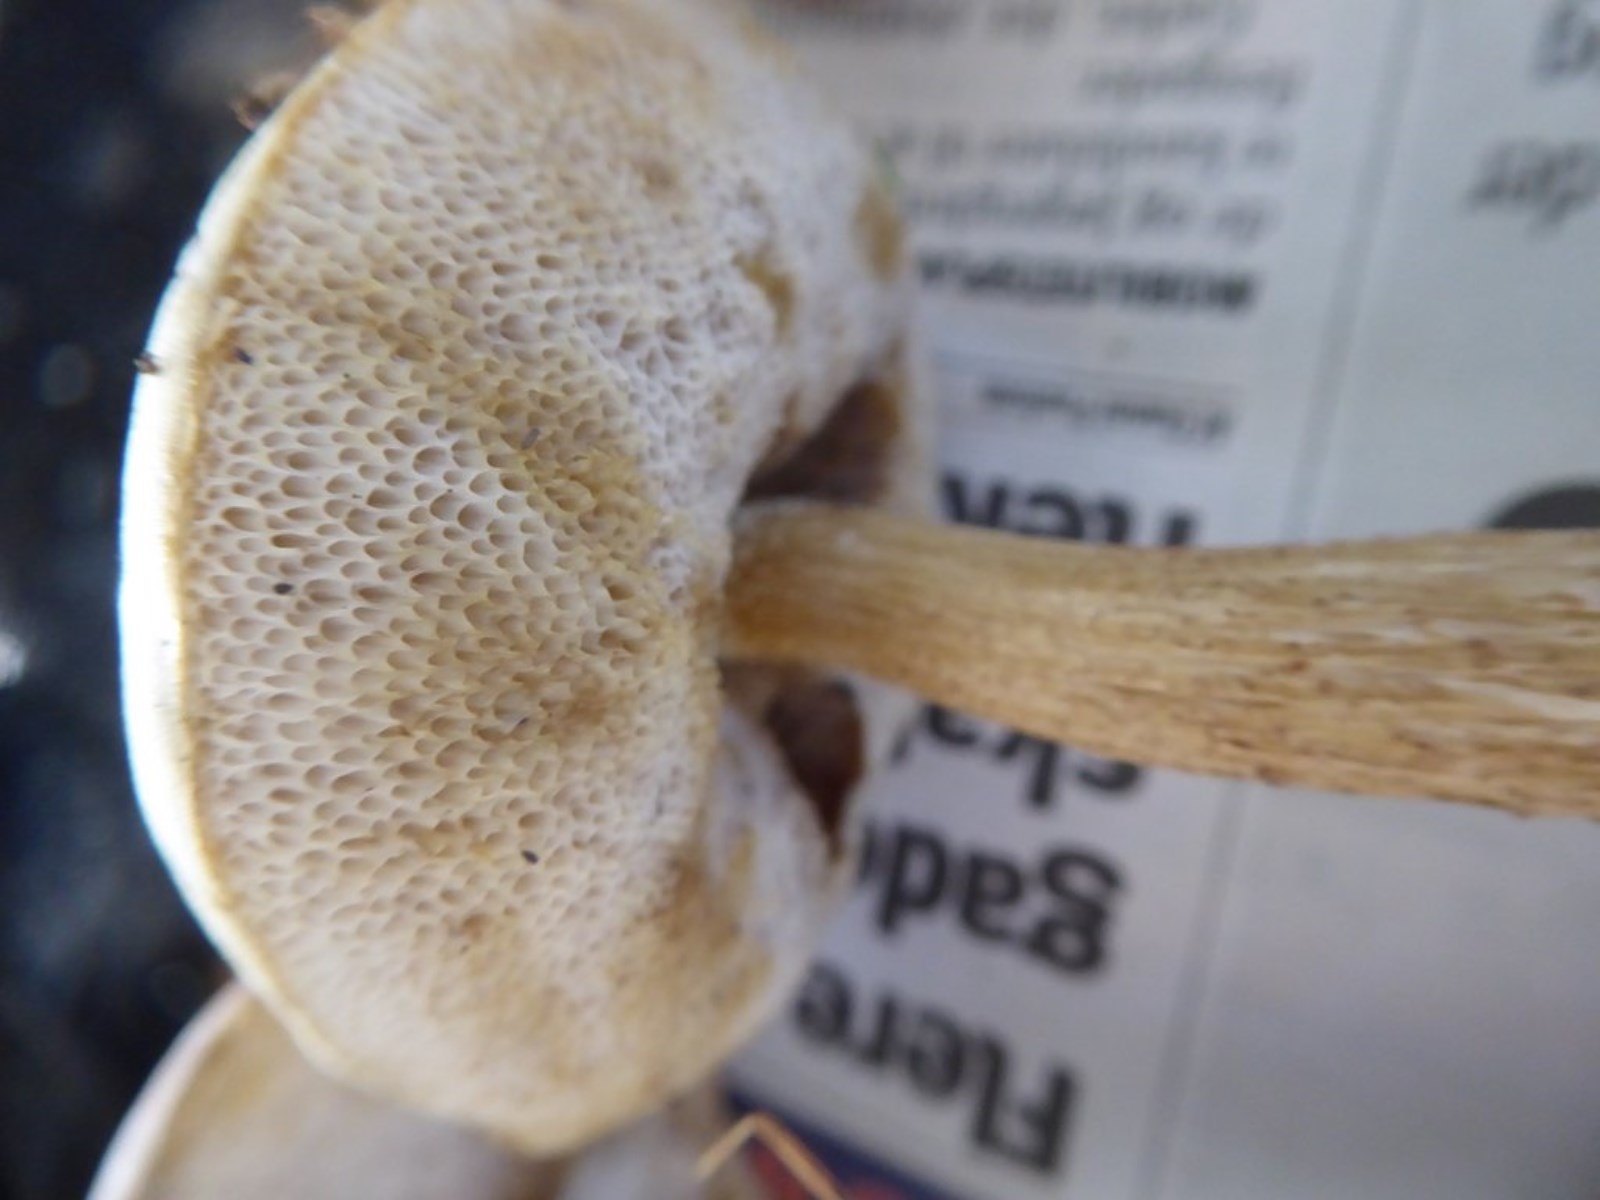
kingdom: Fungi
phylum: Basidiomycota
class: Agaricomycetes
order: Boletales
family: Boletaceae
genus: Leccinum
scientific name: Leccinum
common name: skælrørhat
